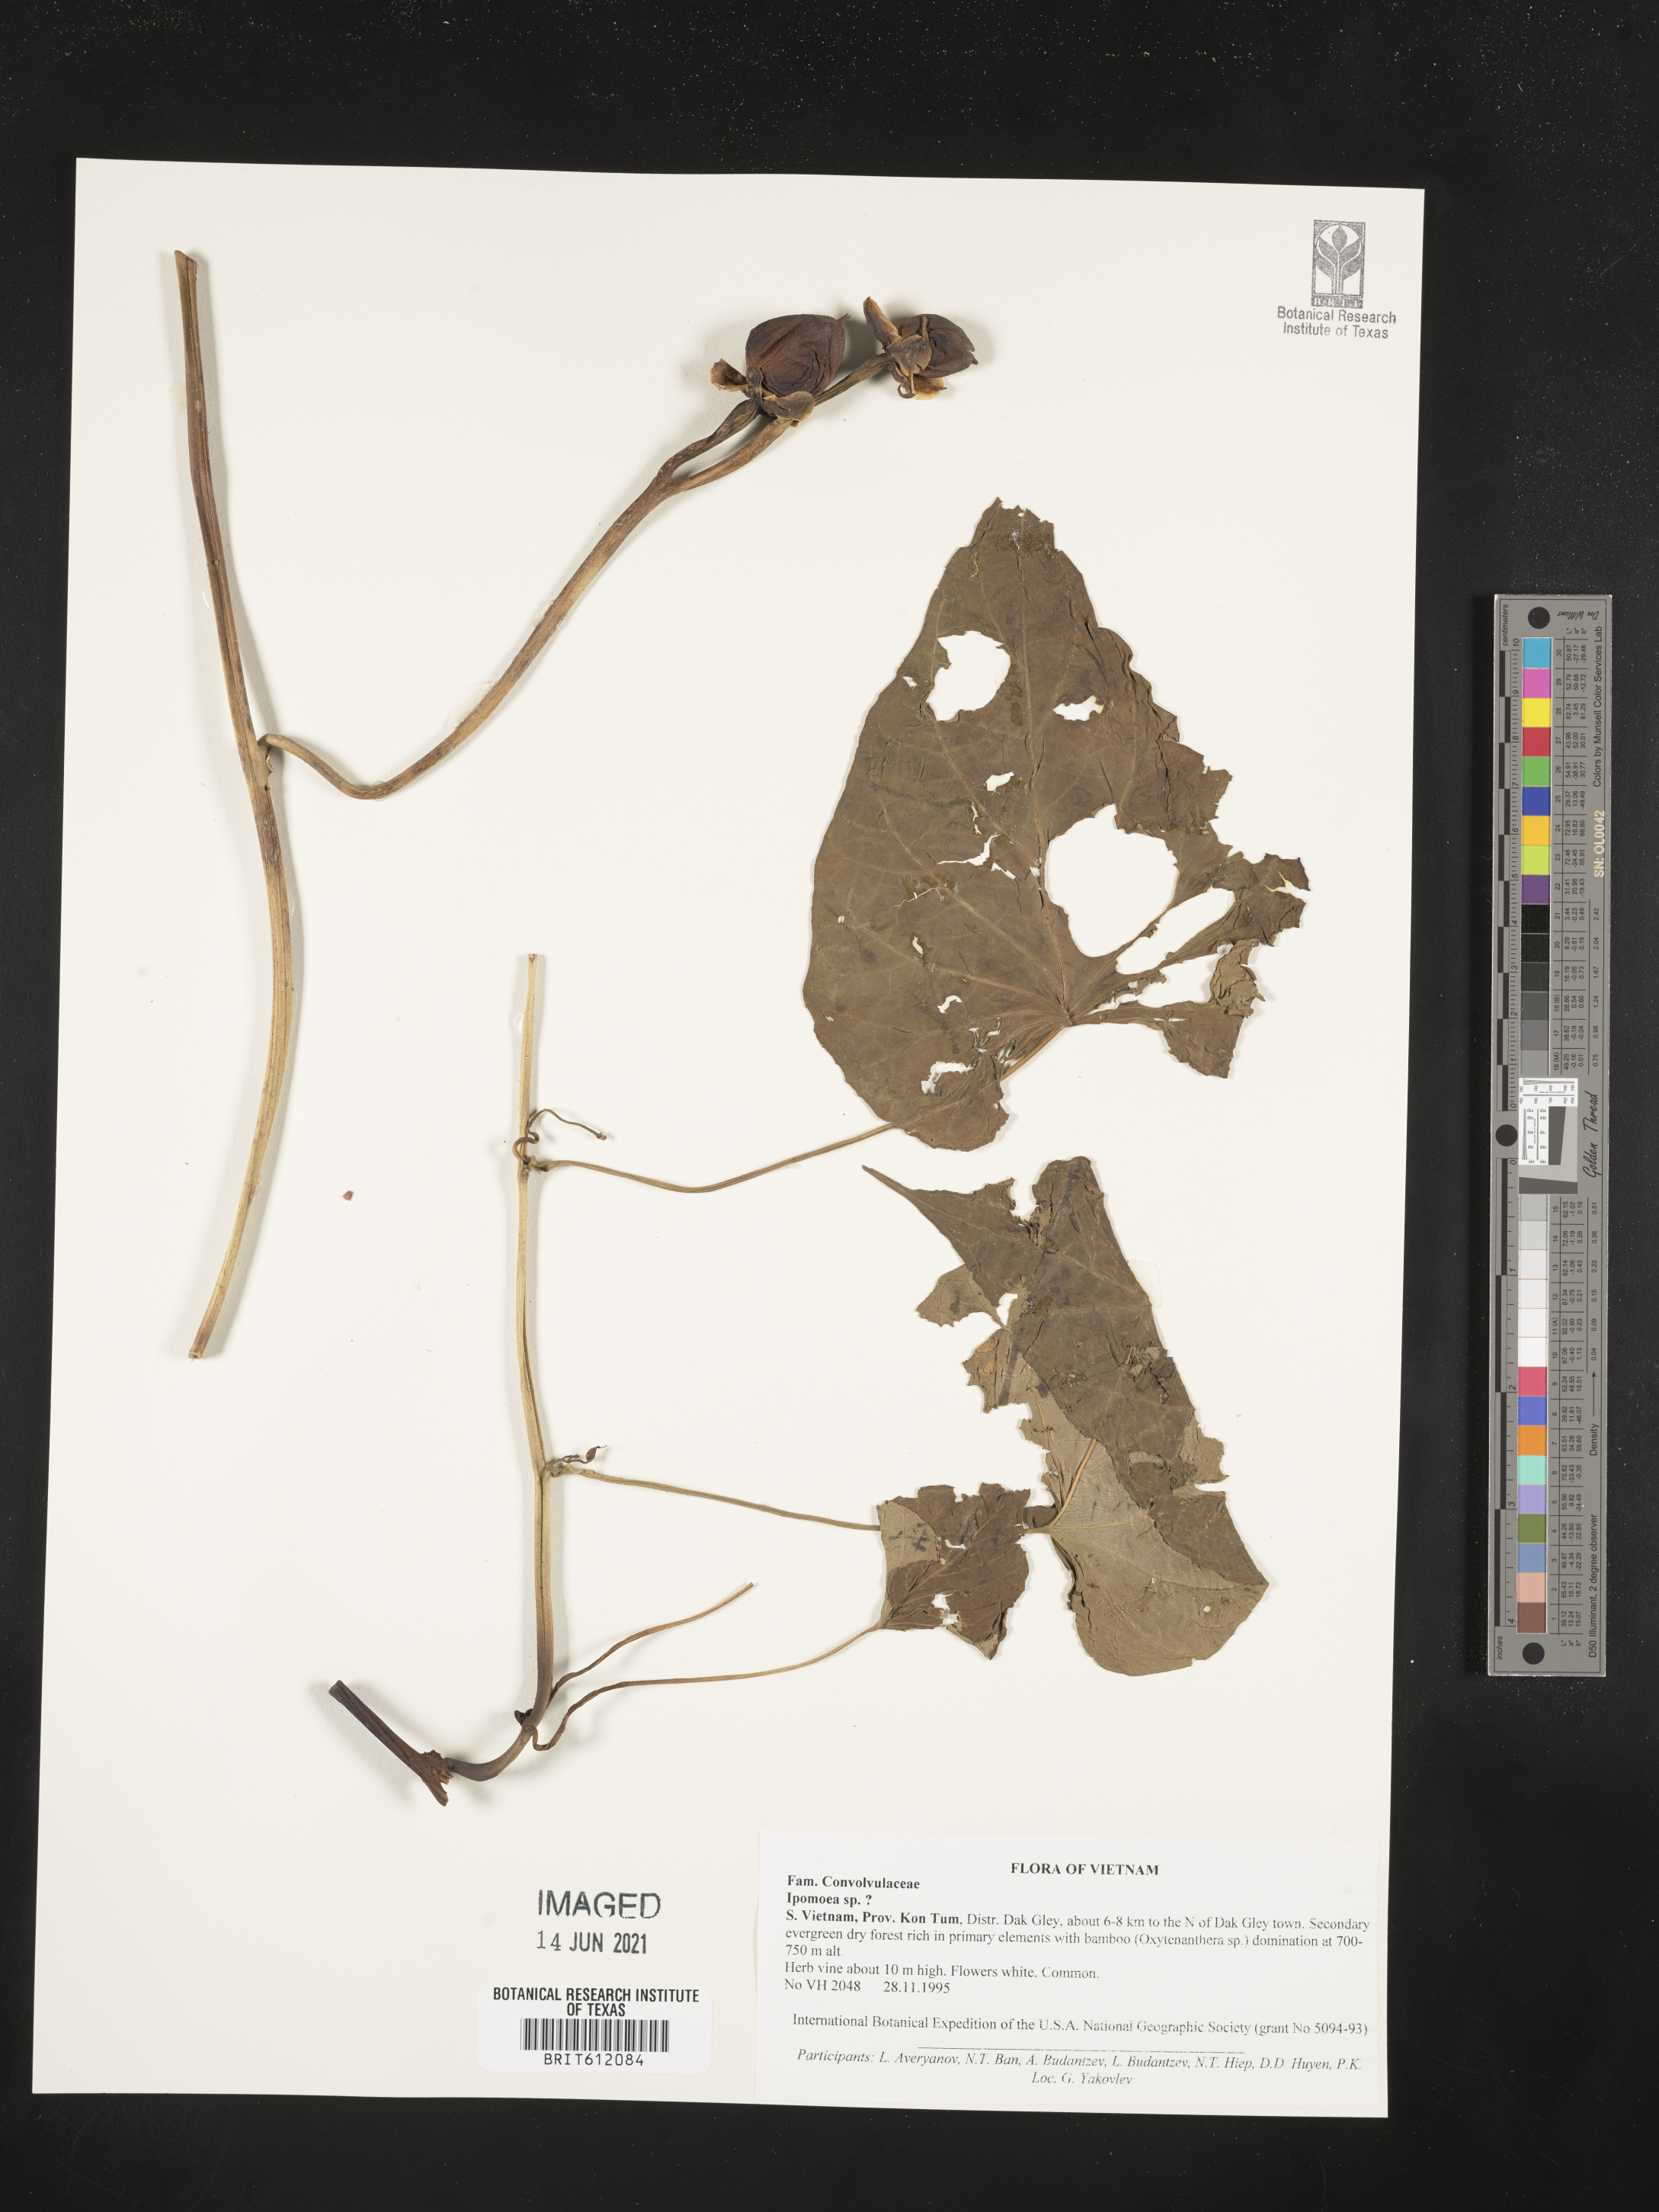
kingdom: Plantae
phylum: Tracheophyta
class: Magnoliopsida
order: Solanales
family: Convolvulaceae
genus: Ipomoea
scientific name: Ipomoea
